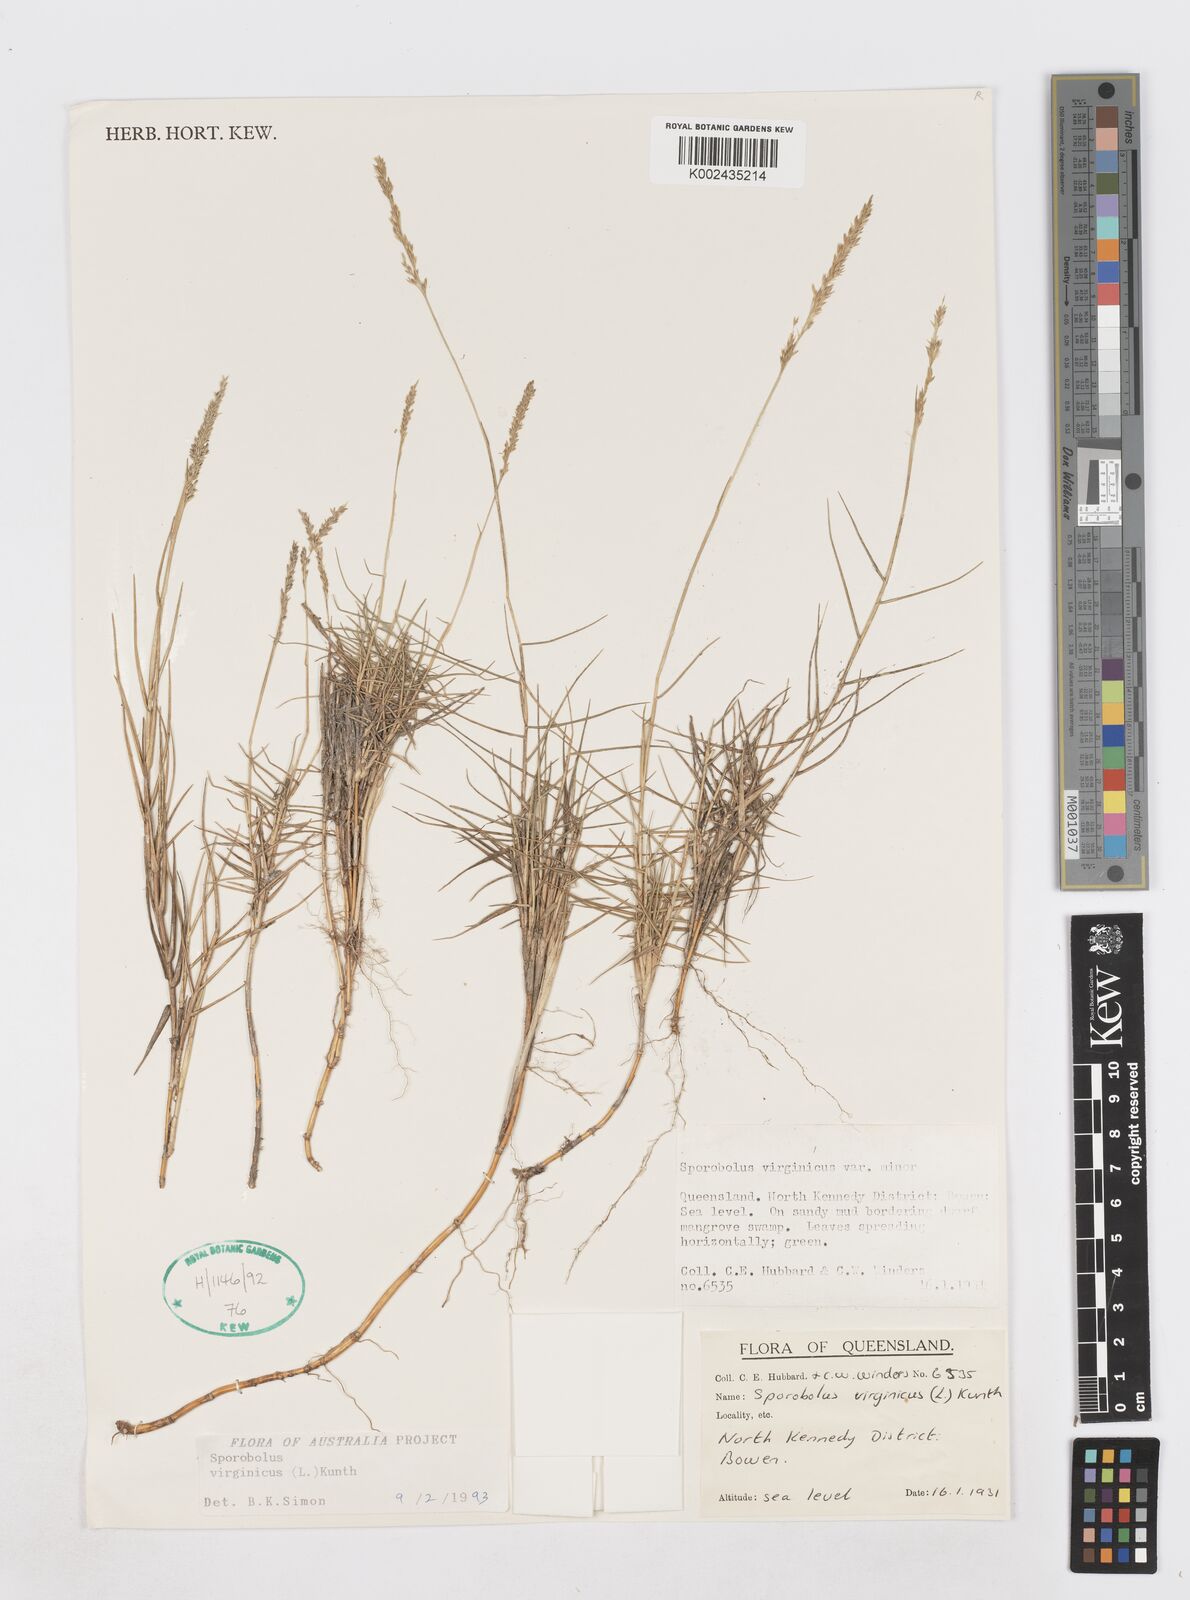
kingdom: Plantae
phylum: Tracheophyta
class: Liliopsida
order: Poales
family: Poaceae
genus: Sporobolus
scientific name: Sporobolus virginicus
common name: Beach dropseed
